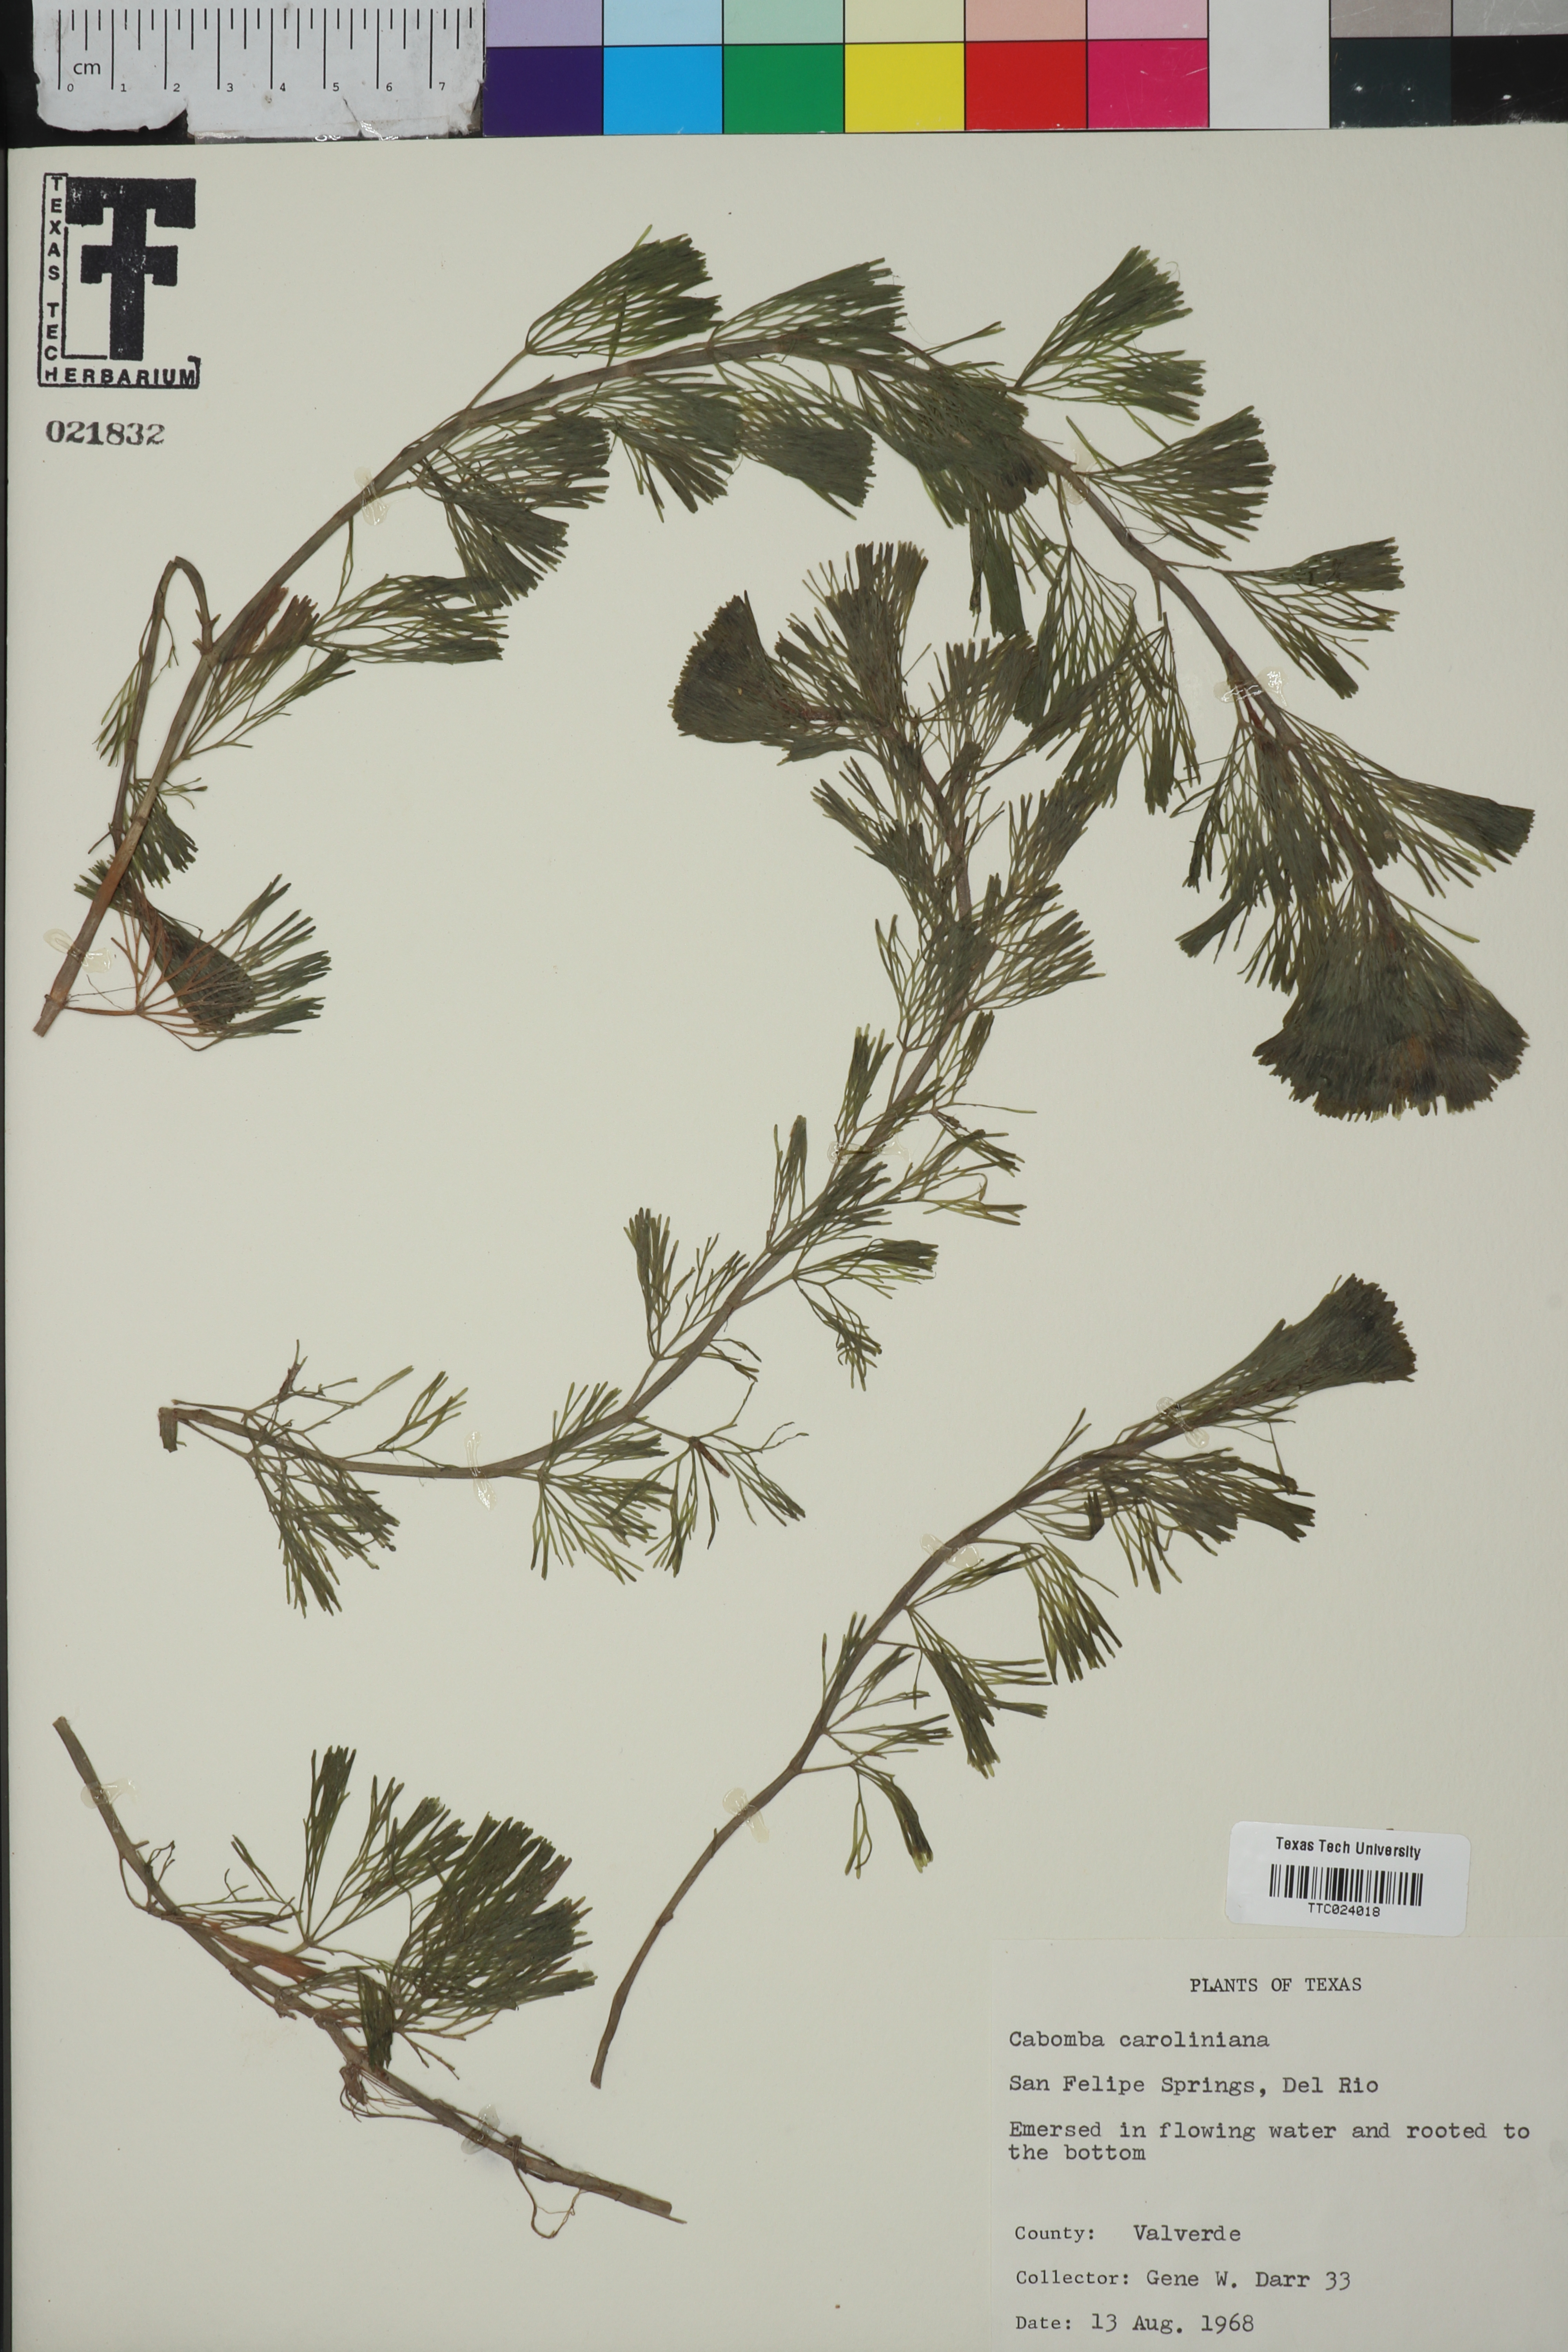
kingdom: Plantae
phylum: Tracheophyta
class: Magnoliopsida
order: Nymphaeales
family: Cabombaceae
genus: Cabomba
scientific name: Cabomba caroliniana
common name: Fanwort
